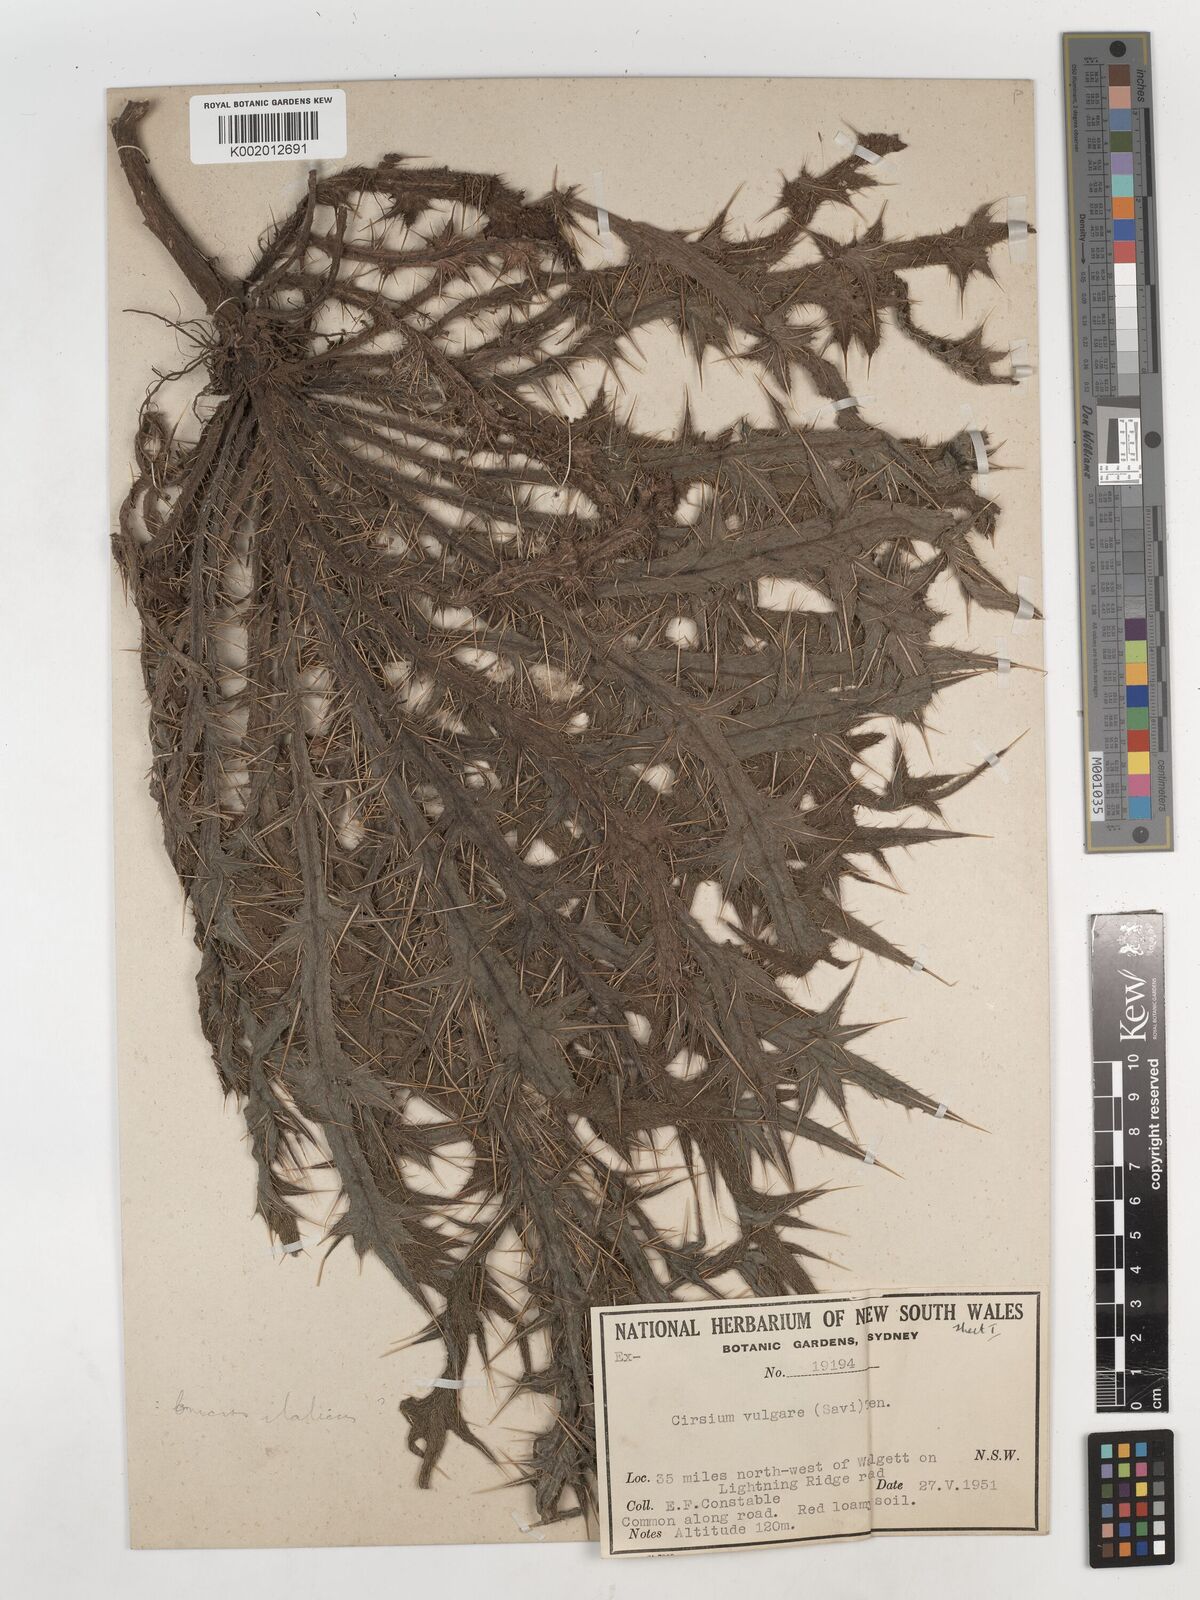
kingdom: Plantae
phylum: Tracheophyta
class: Magnoliopsida
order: Asterales
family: Asteraceae
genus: Cirsium
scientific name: Cirsium vulgare
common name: Bull thistle
